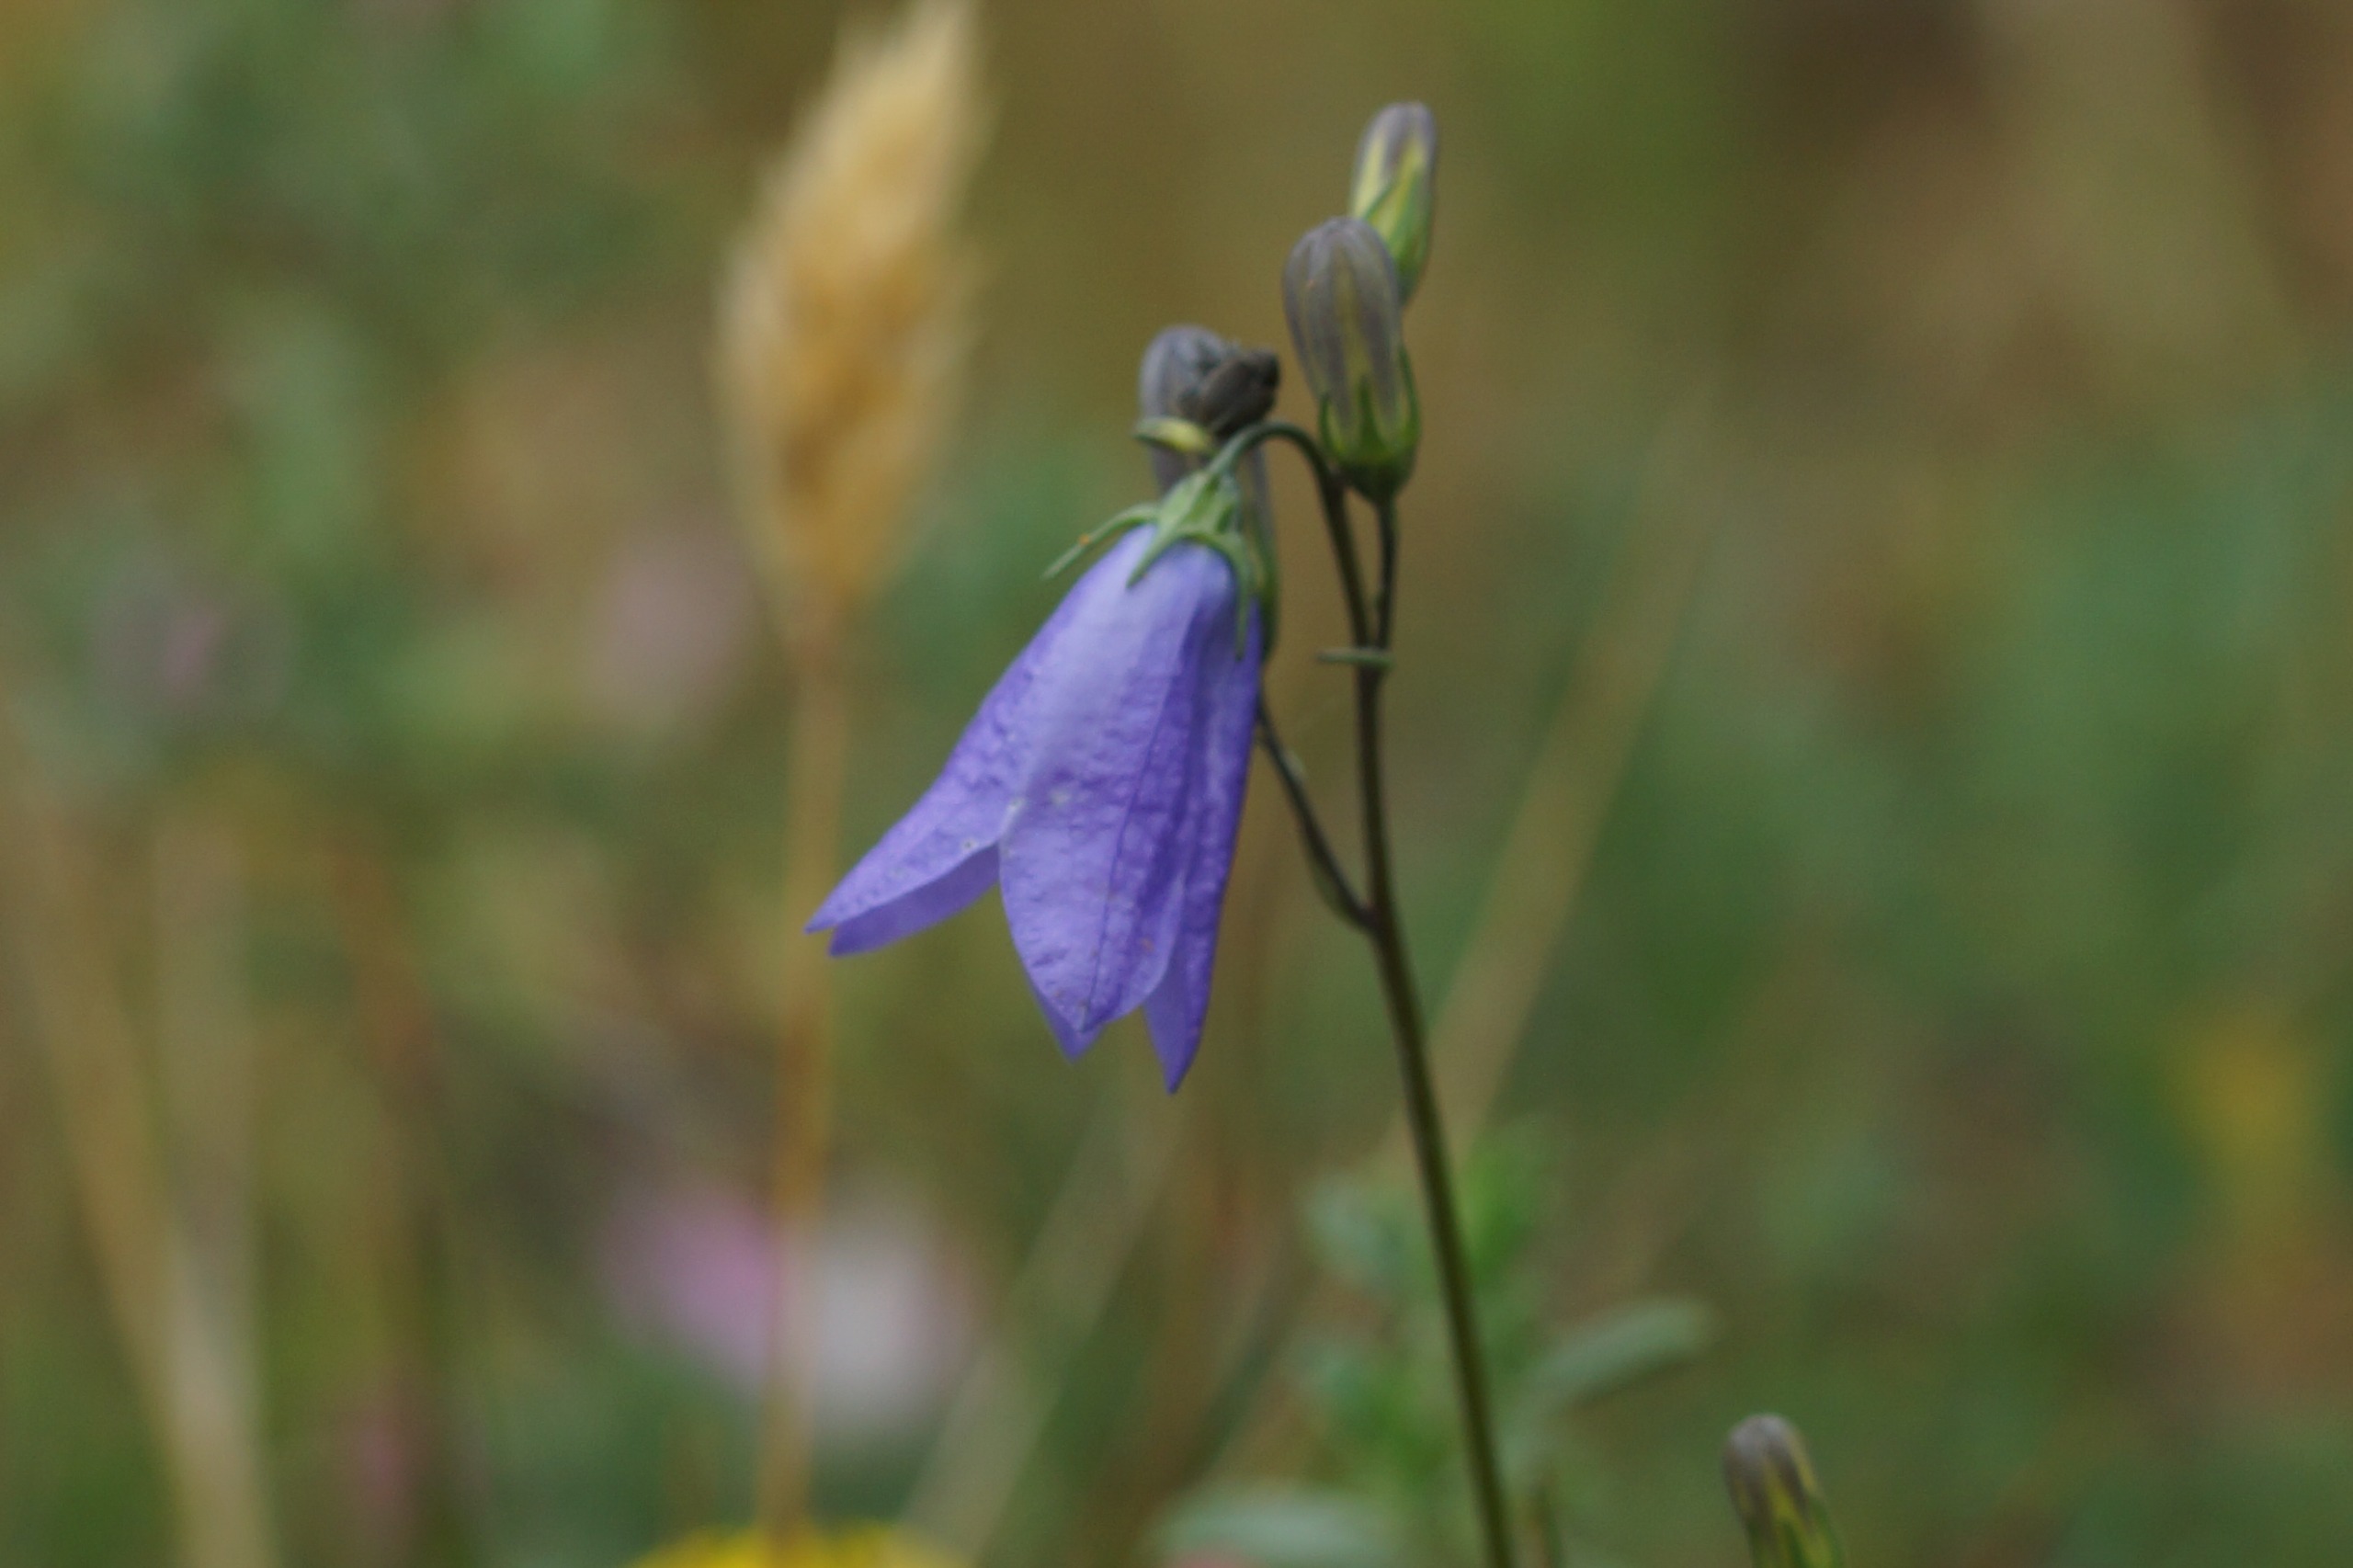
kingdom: Plantae
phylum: Tracheophyta
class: Magnoliopsida
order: Asterales
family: Campanulaceae
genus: Campanula
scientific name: Campanula rotundifolia
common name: Liden klokke
